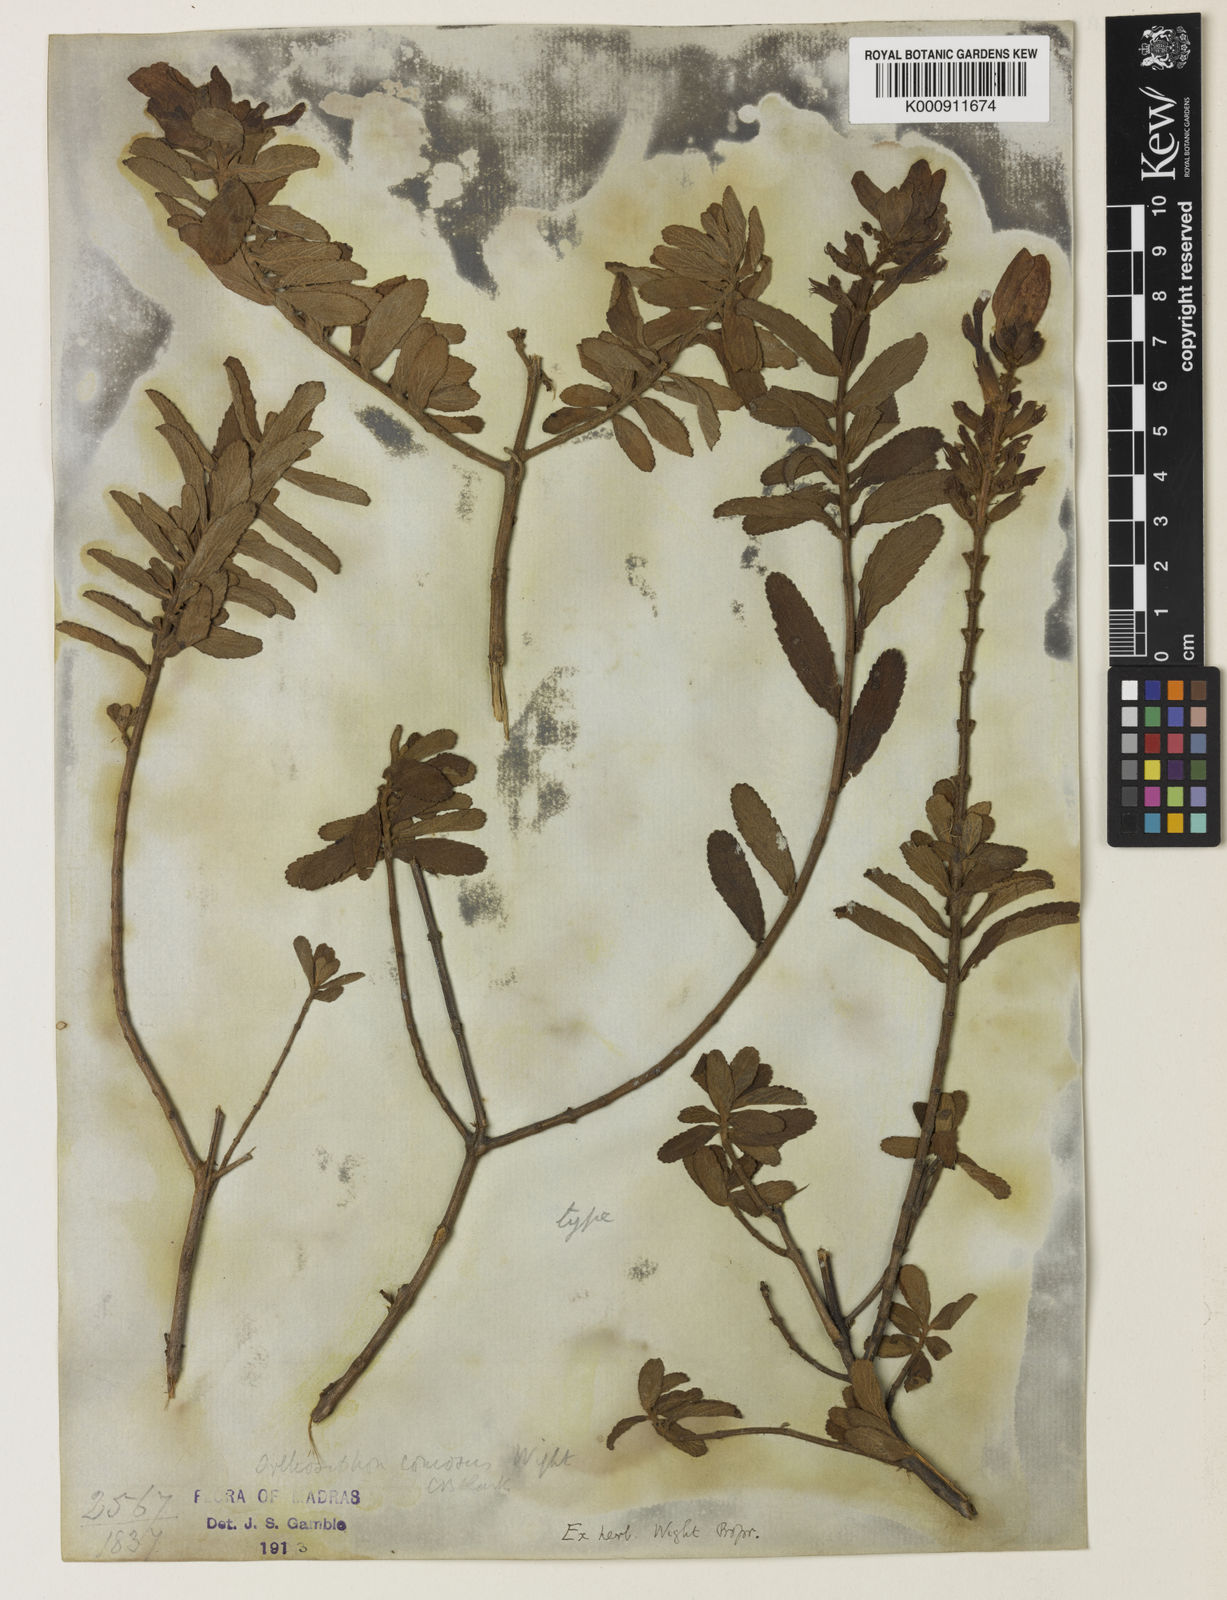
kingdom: Plantae
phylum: Tracheophyta
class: Magnoliopsida
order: Lamiales
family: Lamiaceae
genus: Syncolostemon
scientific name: Syncolostemon comosus
